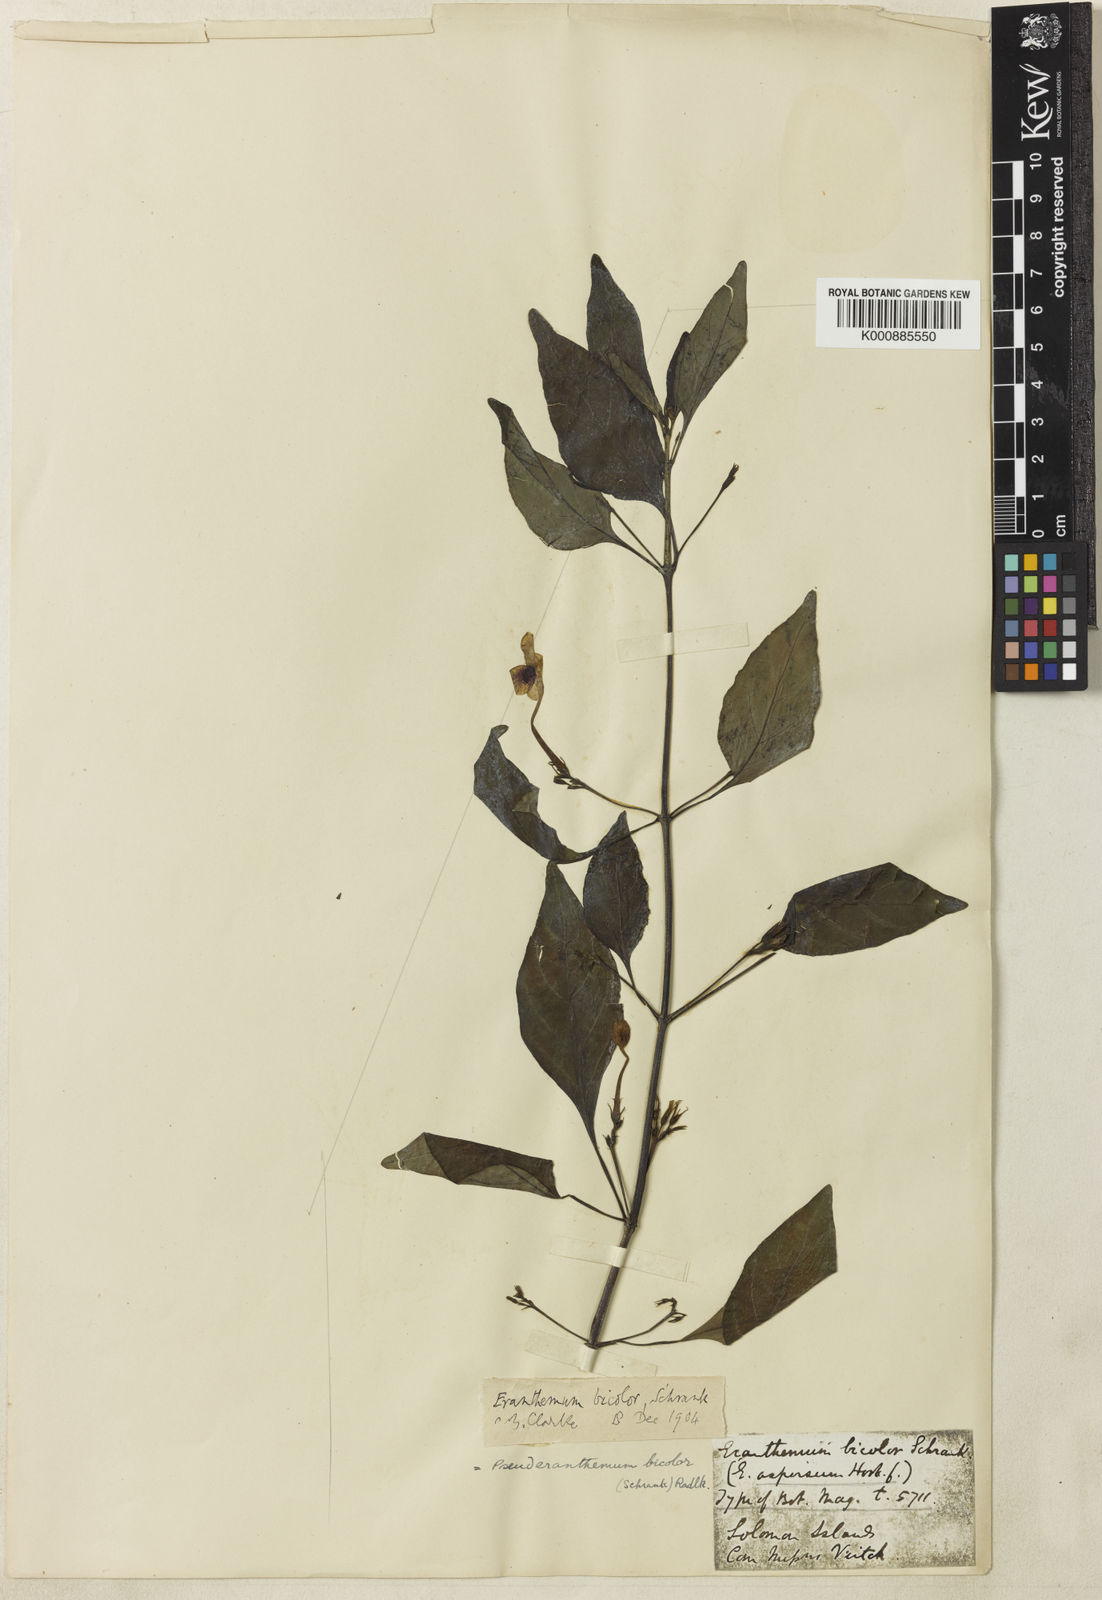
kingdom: Plantae
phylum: Tracheophyta
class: Magnoliopsida
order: Lamiales
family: Acanthaceae
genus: Pseuderanthemum
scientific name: Pseuderanthemum bicolor
